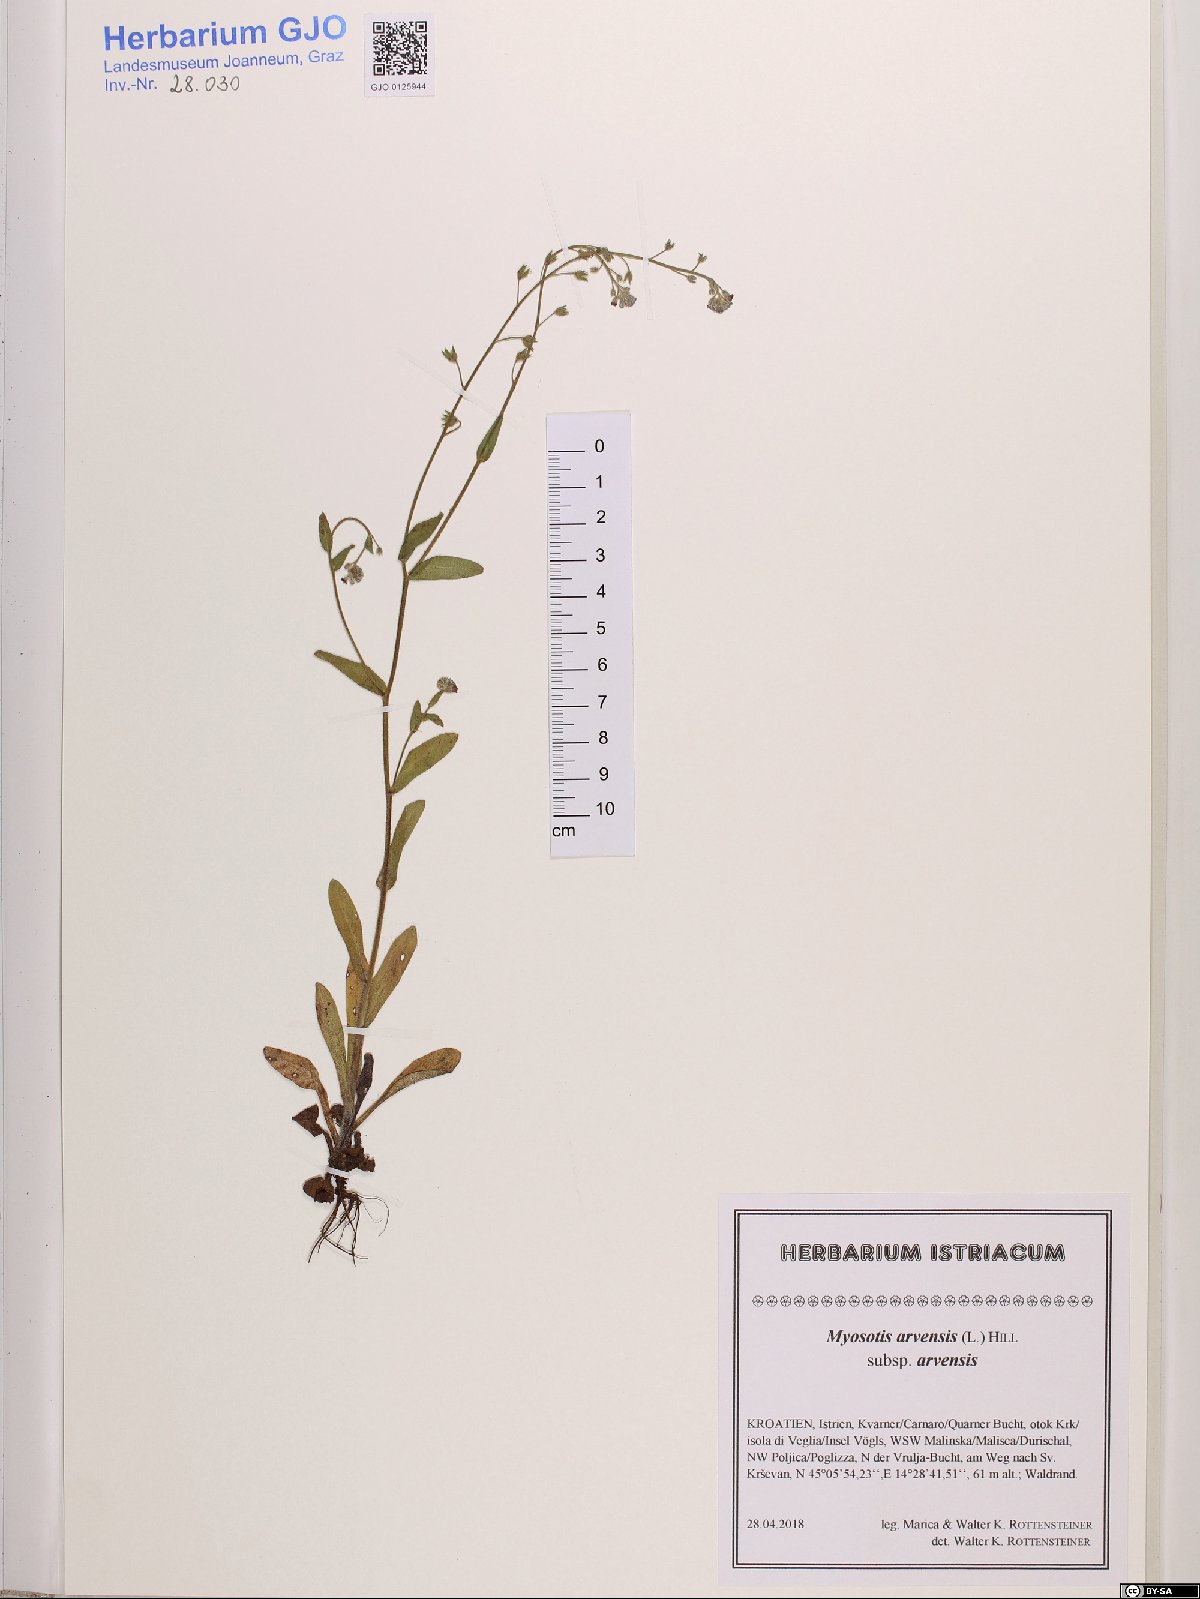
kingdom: Plantae
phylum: Tracheophyta
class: Magnoliopsida
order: Boraginales
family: Boraginaceae
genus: Myosotis
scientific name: Myosotis arvensis
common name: Field forget-me-not
